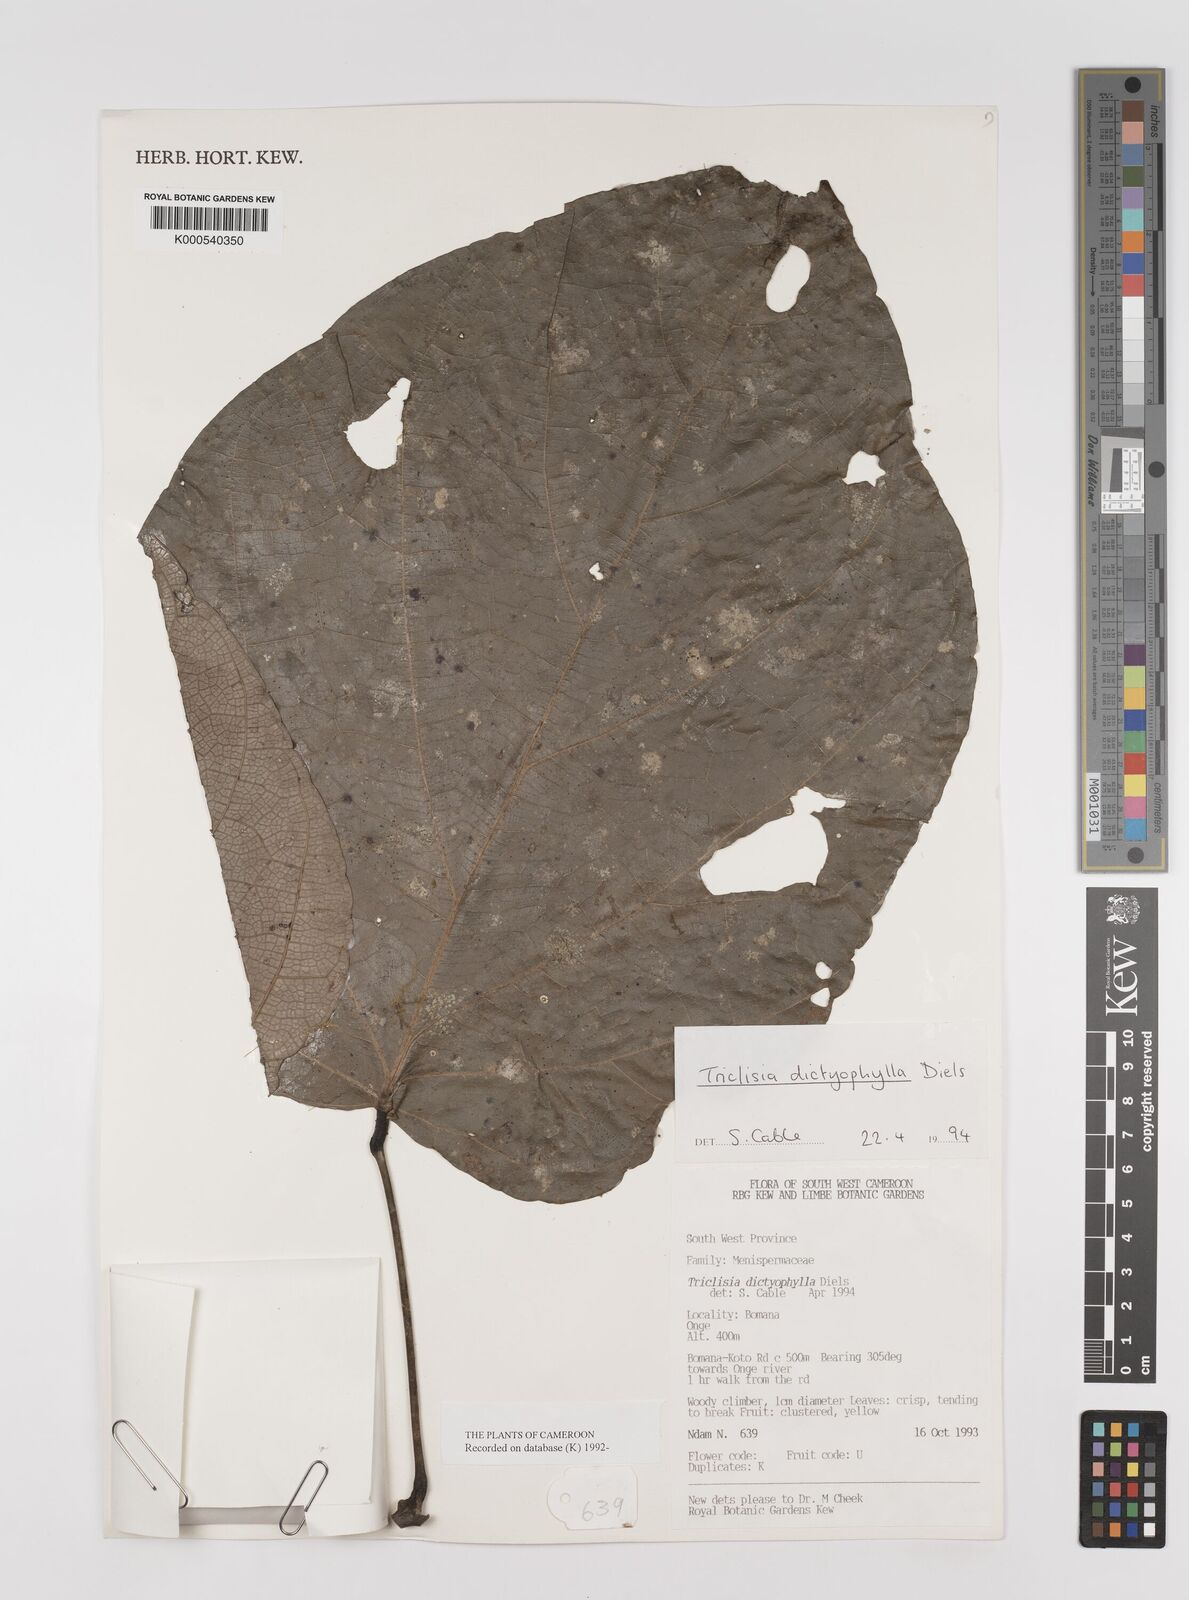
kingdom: Plantae
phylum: Tracheophyta
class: Magnoliopsida
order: Ranunculales
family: Menispermaceae
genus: Triclisia
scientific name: Triclisia dictyophylla
